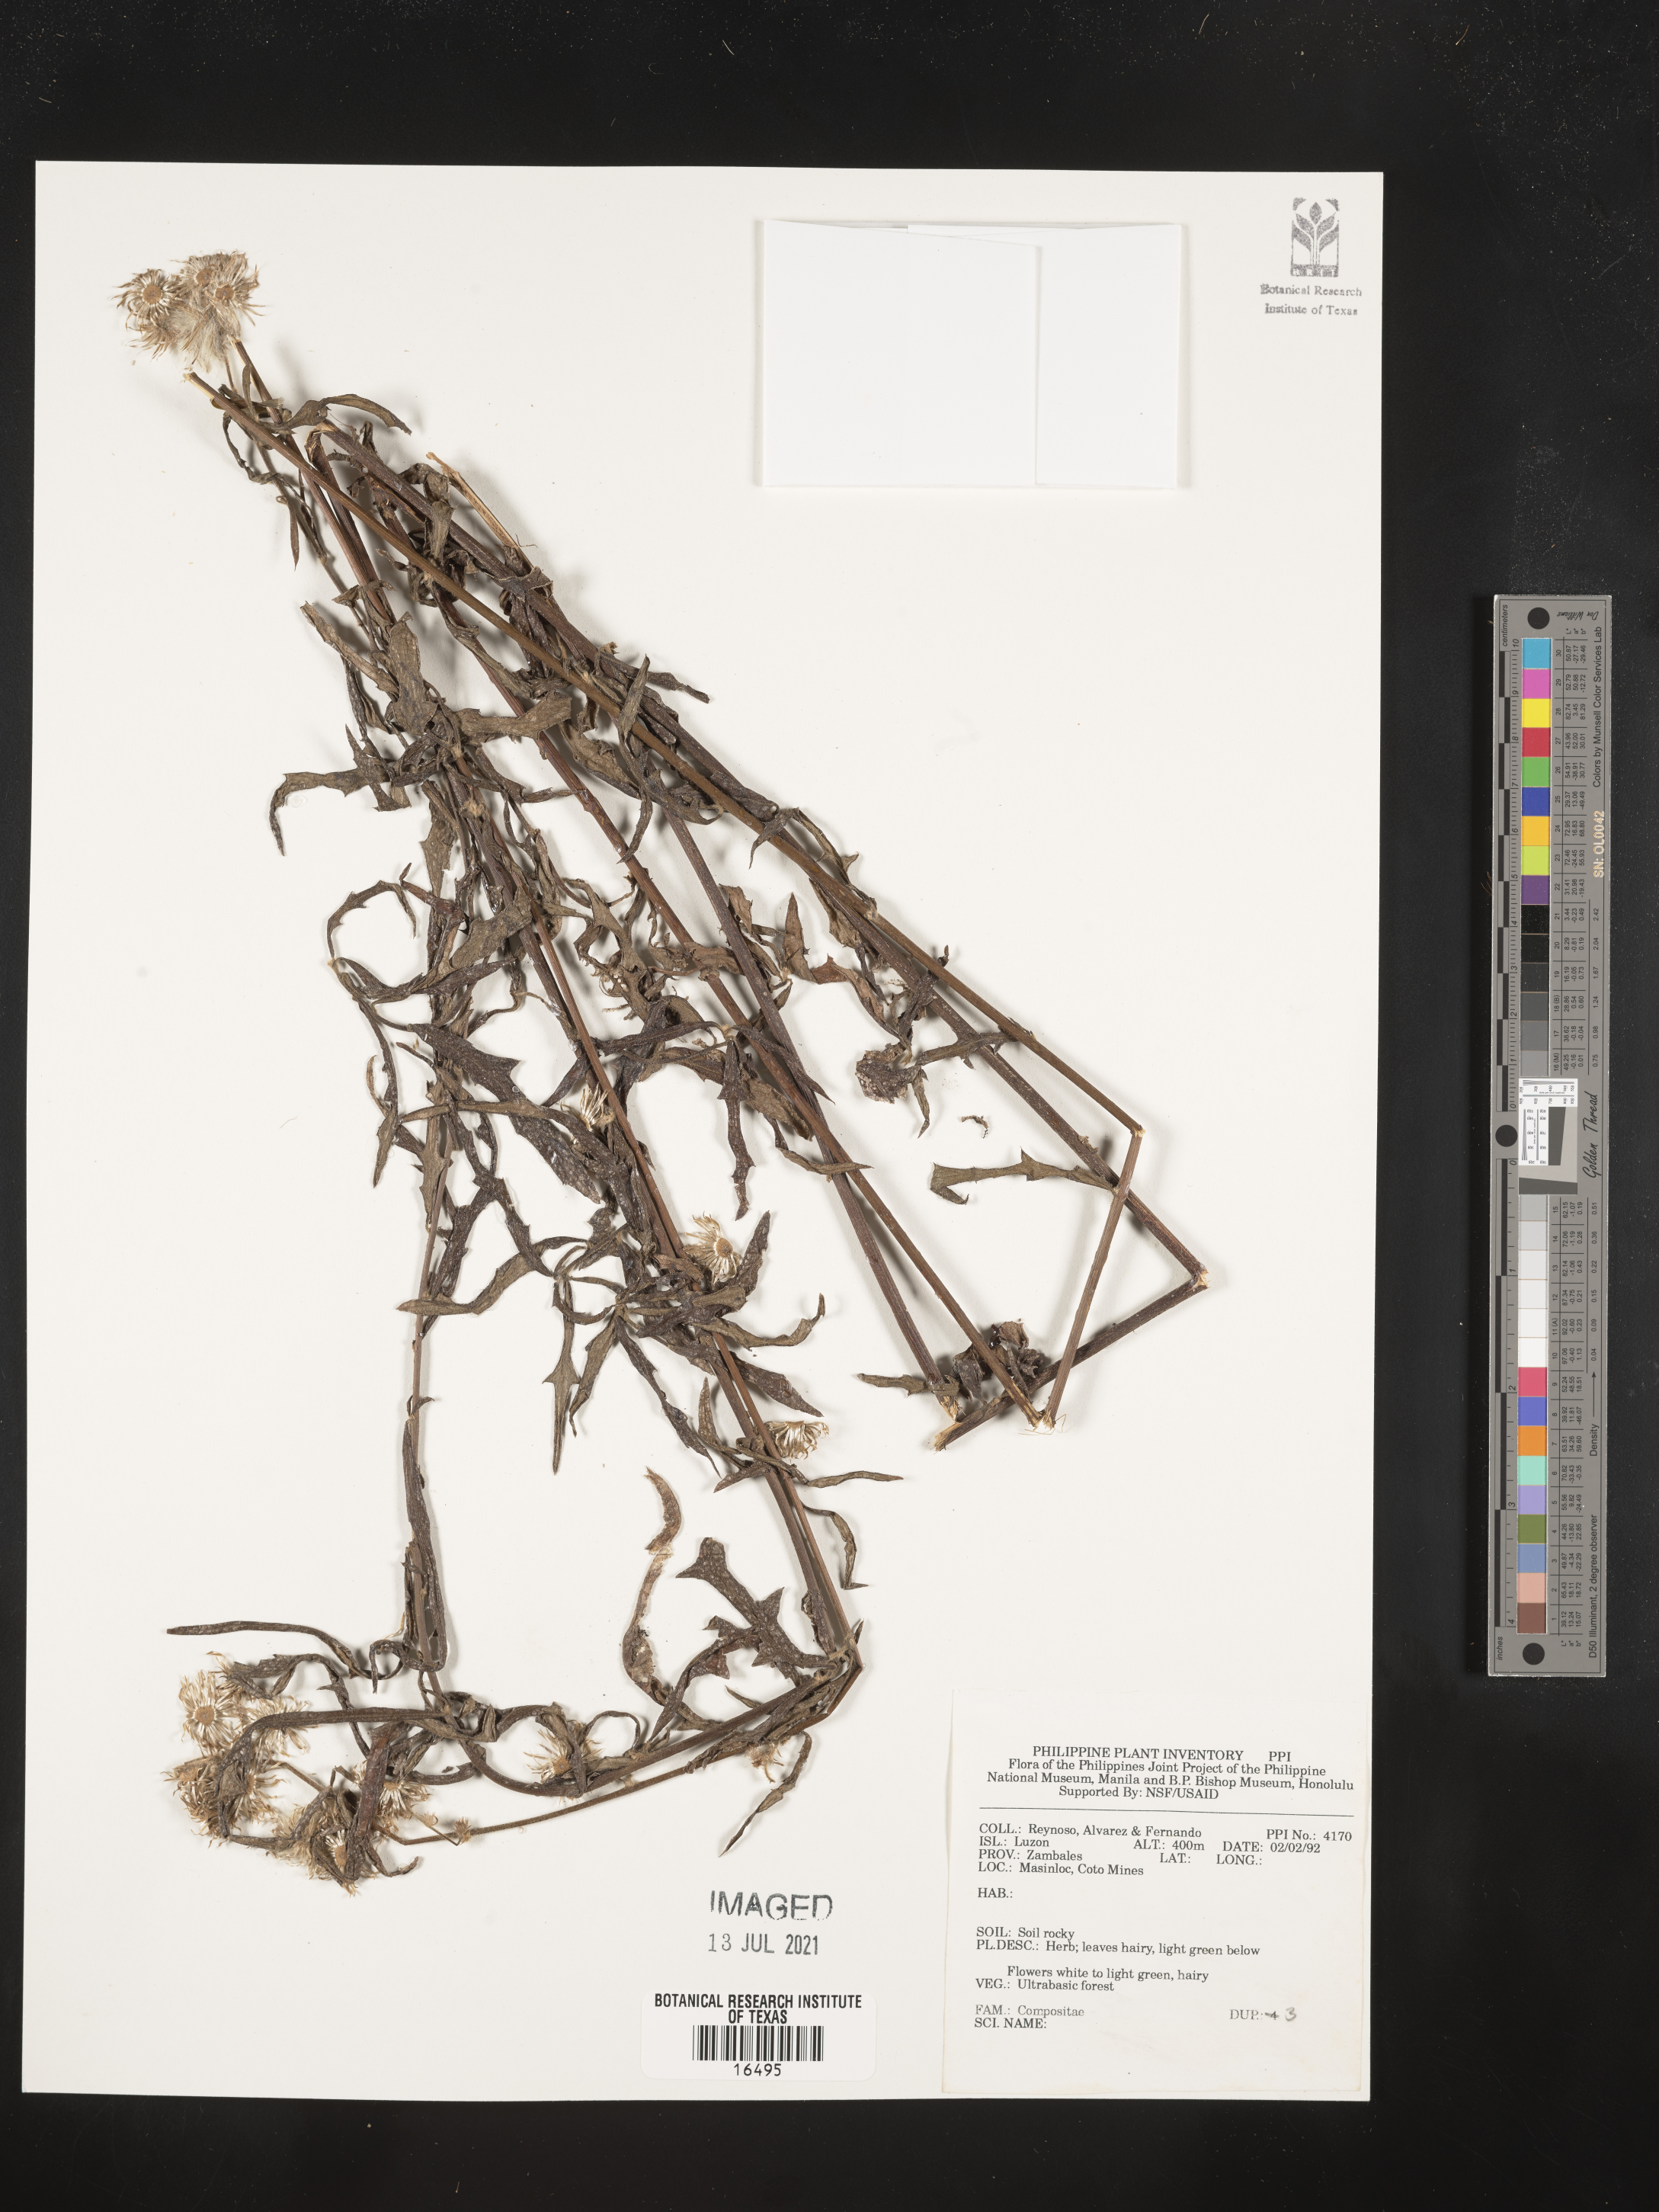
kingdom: Plantae
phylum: Tracheophyta
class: Magnoliopsida
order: Asterales
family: Asteraceae
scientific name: Asteraceae
